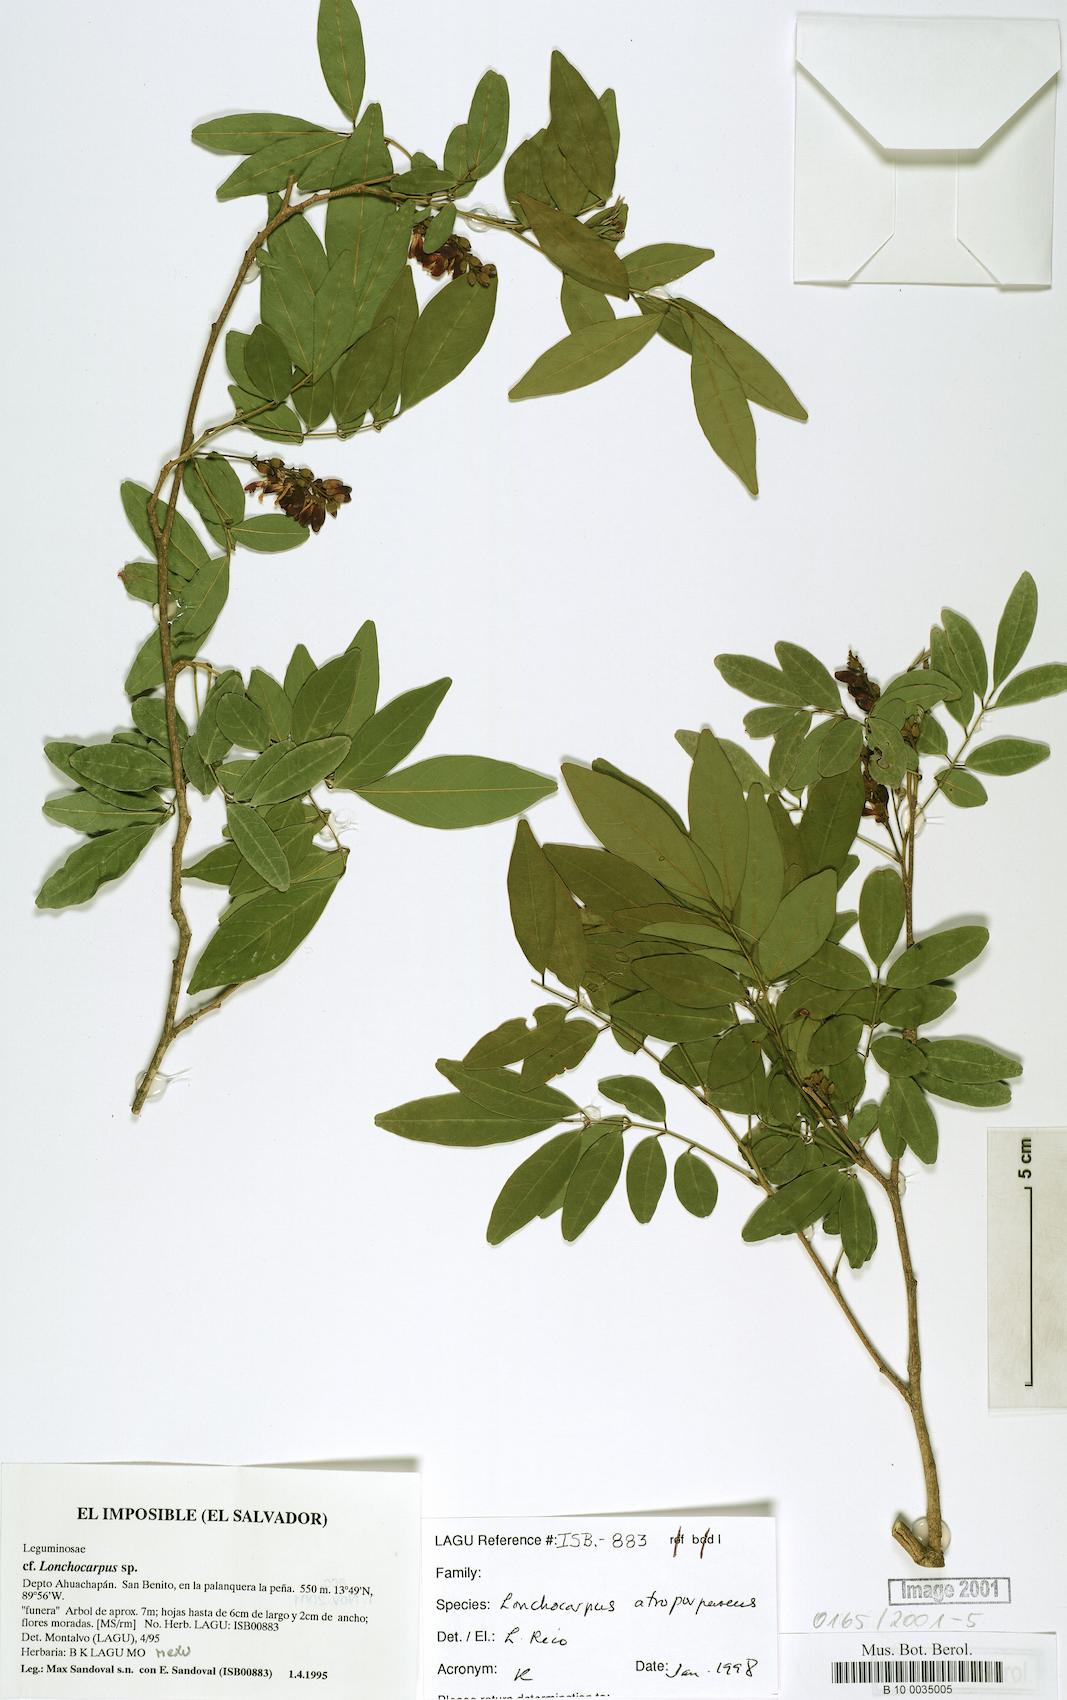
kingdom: Plantae
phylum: Tracheophyta
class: Magnoliopsida
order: Fabales
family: Fabaceae
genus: Lonchocarpus
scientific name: Lonchocarpus atropurpureus
